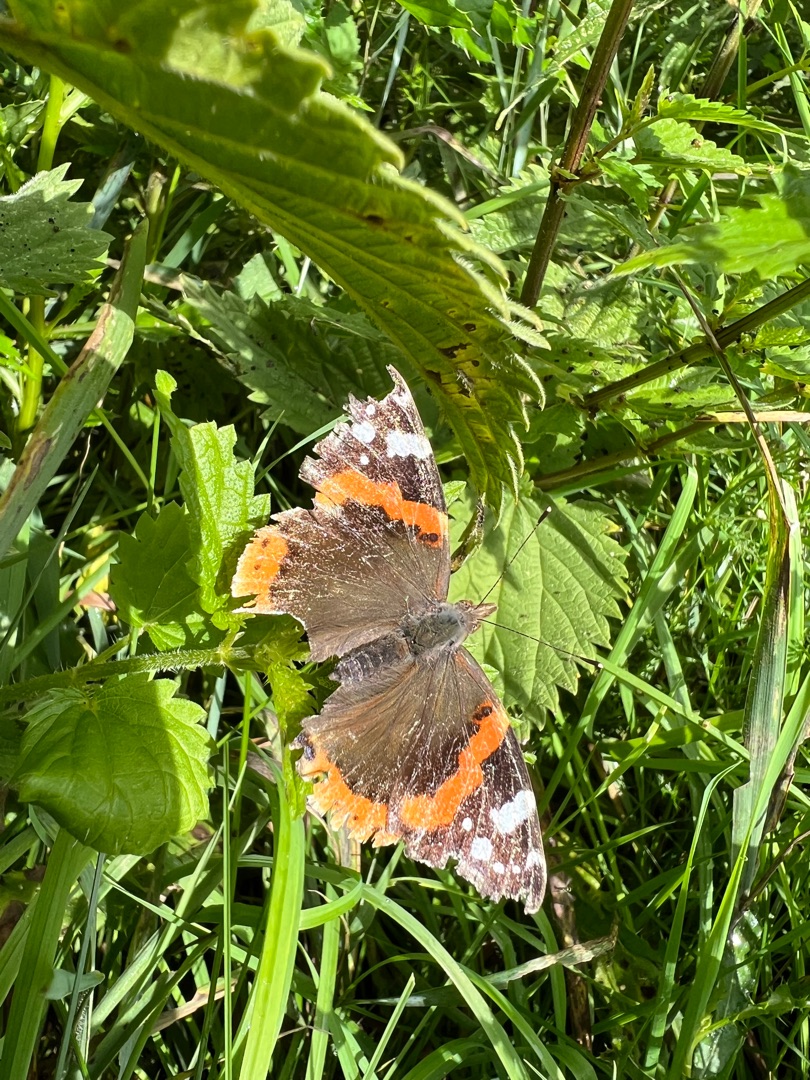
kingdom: Animalia
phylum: Arthropoda
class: Insecta
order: Lepidoptera
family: Nymphalidae
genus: Vanessa
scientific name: Vanessa atalanta
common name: Admiral
